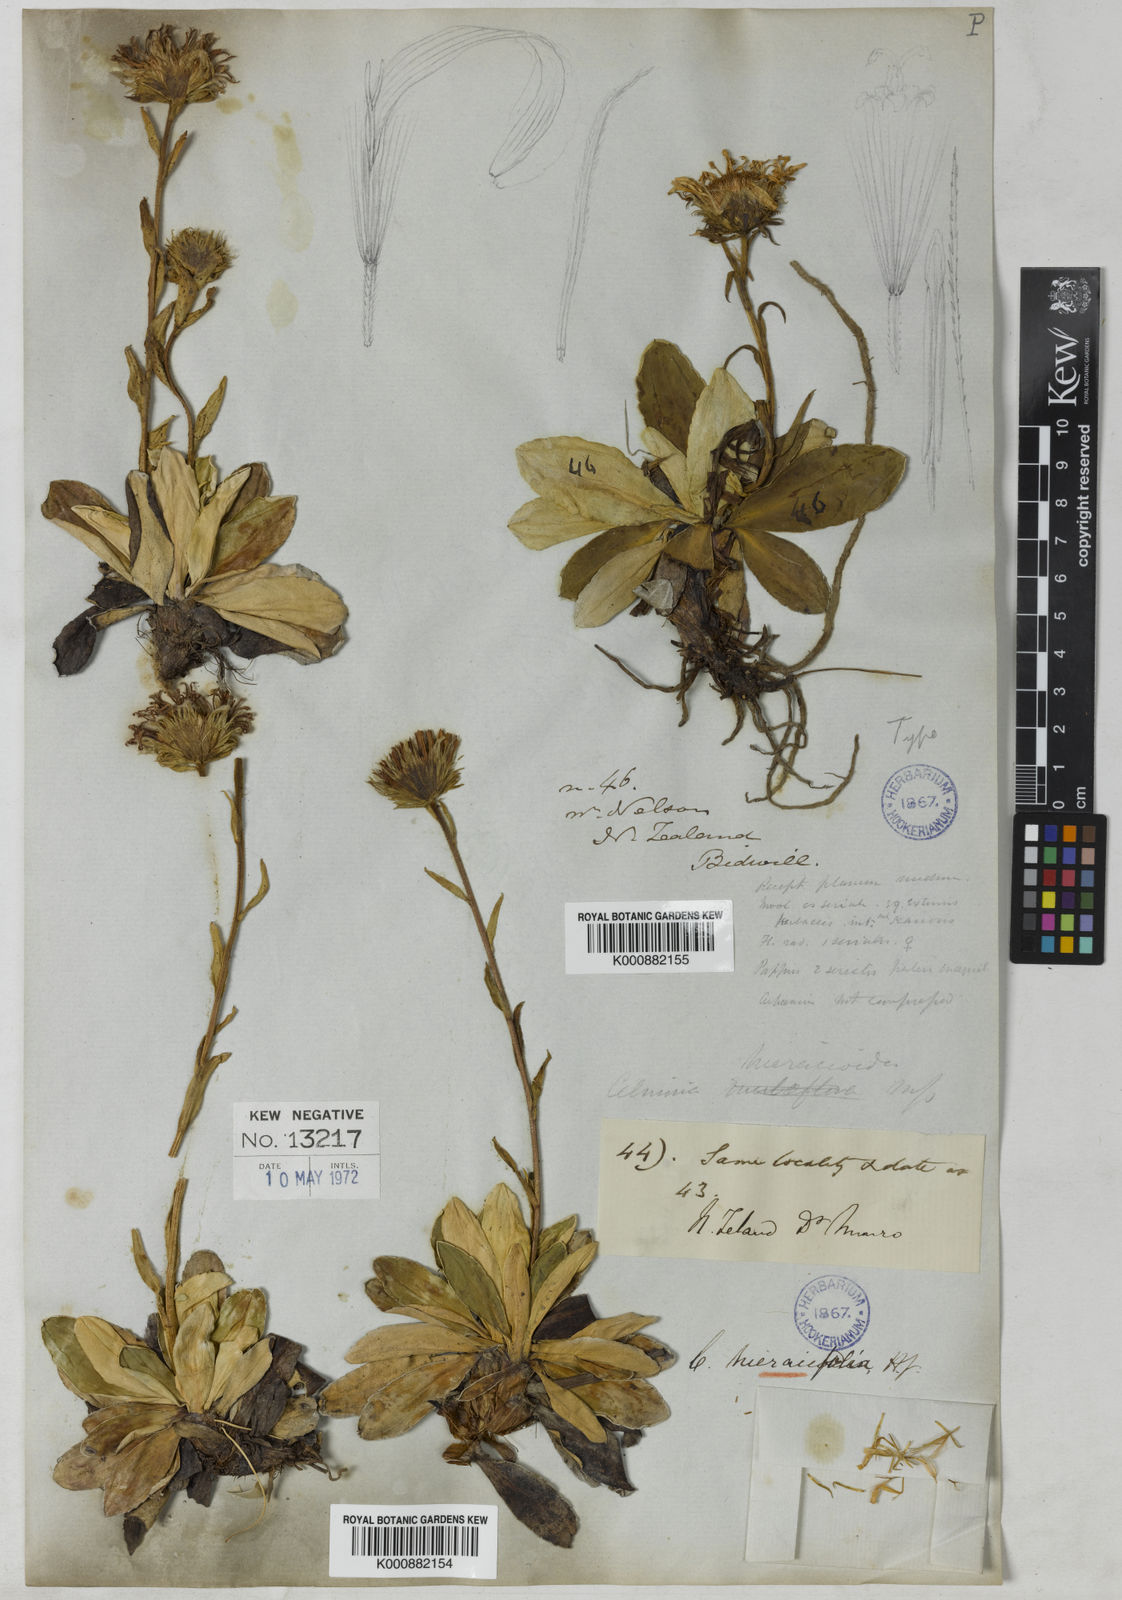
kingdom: Plantae
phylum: Tracheophyta
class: Magnoliopsida
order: Asterales
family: Asteraceae
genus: Celmisia
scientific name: Celmisia hieraciifolia
